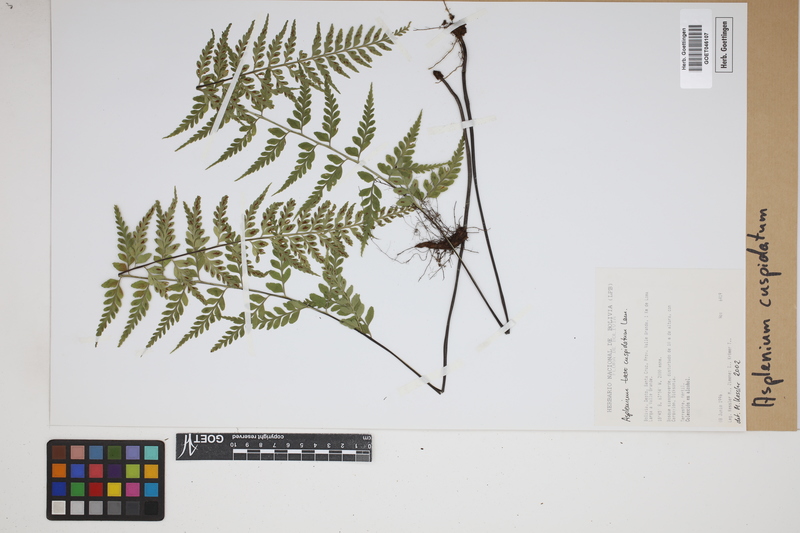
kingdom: Plantae
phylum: Tracheophyta
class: Polypodiopsida
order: Polypodiales
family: Aspleniaceae
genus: Asplenium
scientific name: Asplenium cuspidatum
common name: Eared spleenwort
